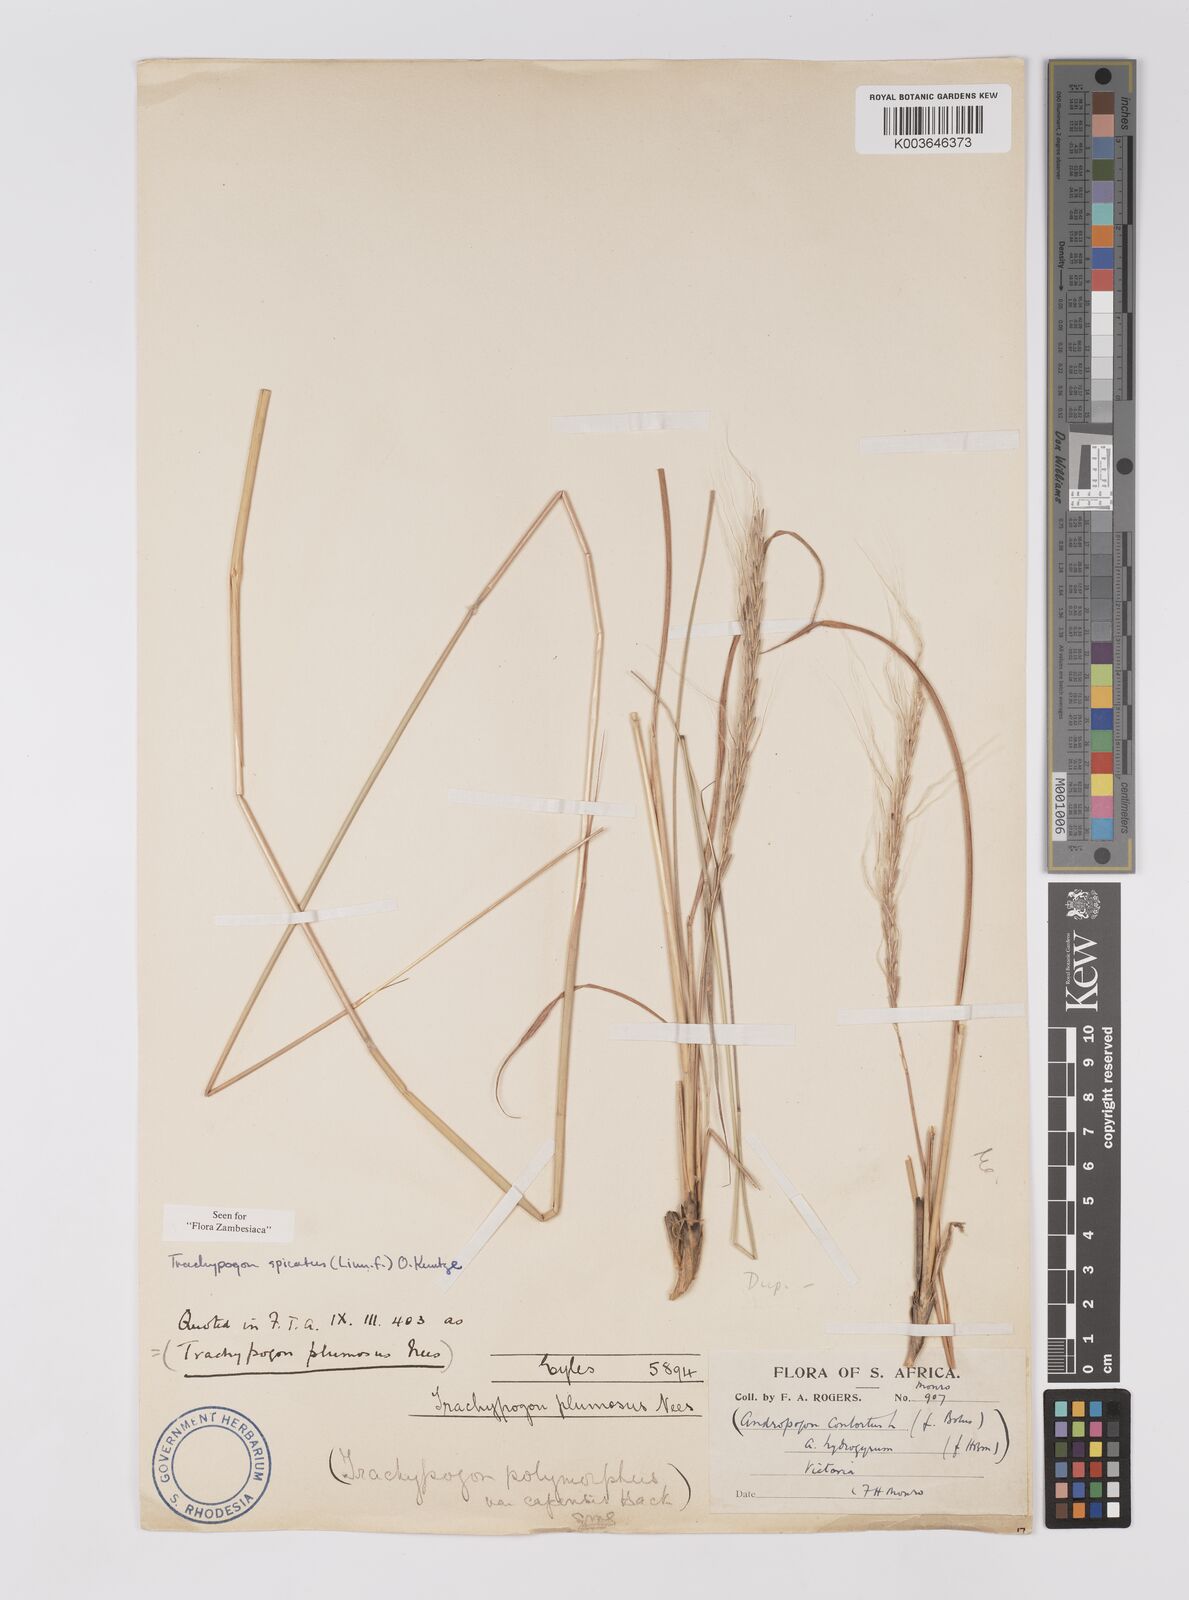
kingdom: Plantae
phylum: Tracheophyta
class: Liliopsida
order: Poales
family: Poaceae
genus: Trachypogon
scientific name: Trachypogon spicatus
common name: Crinkle-awn
